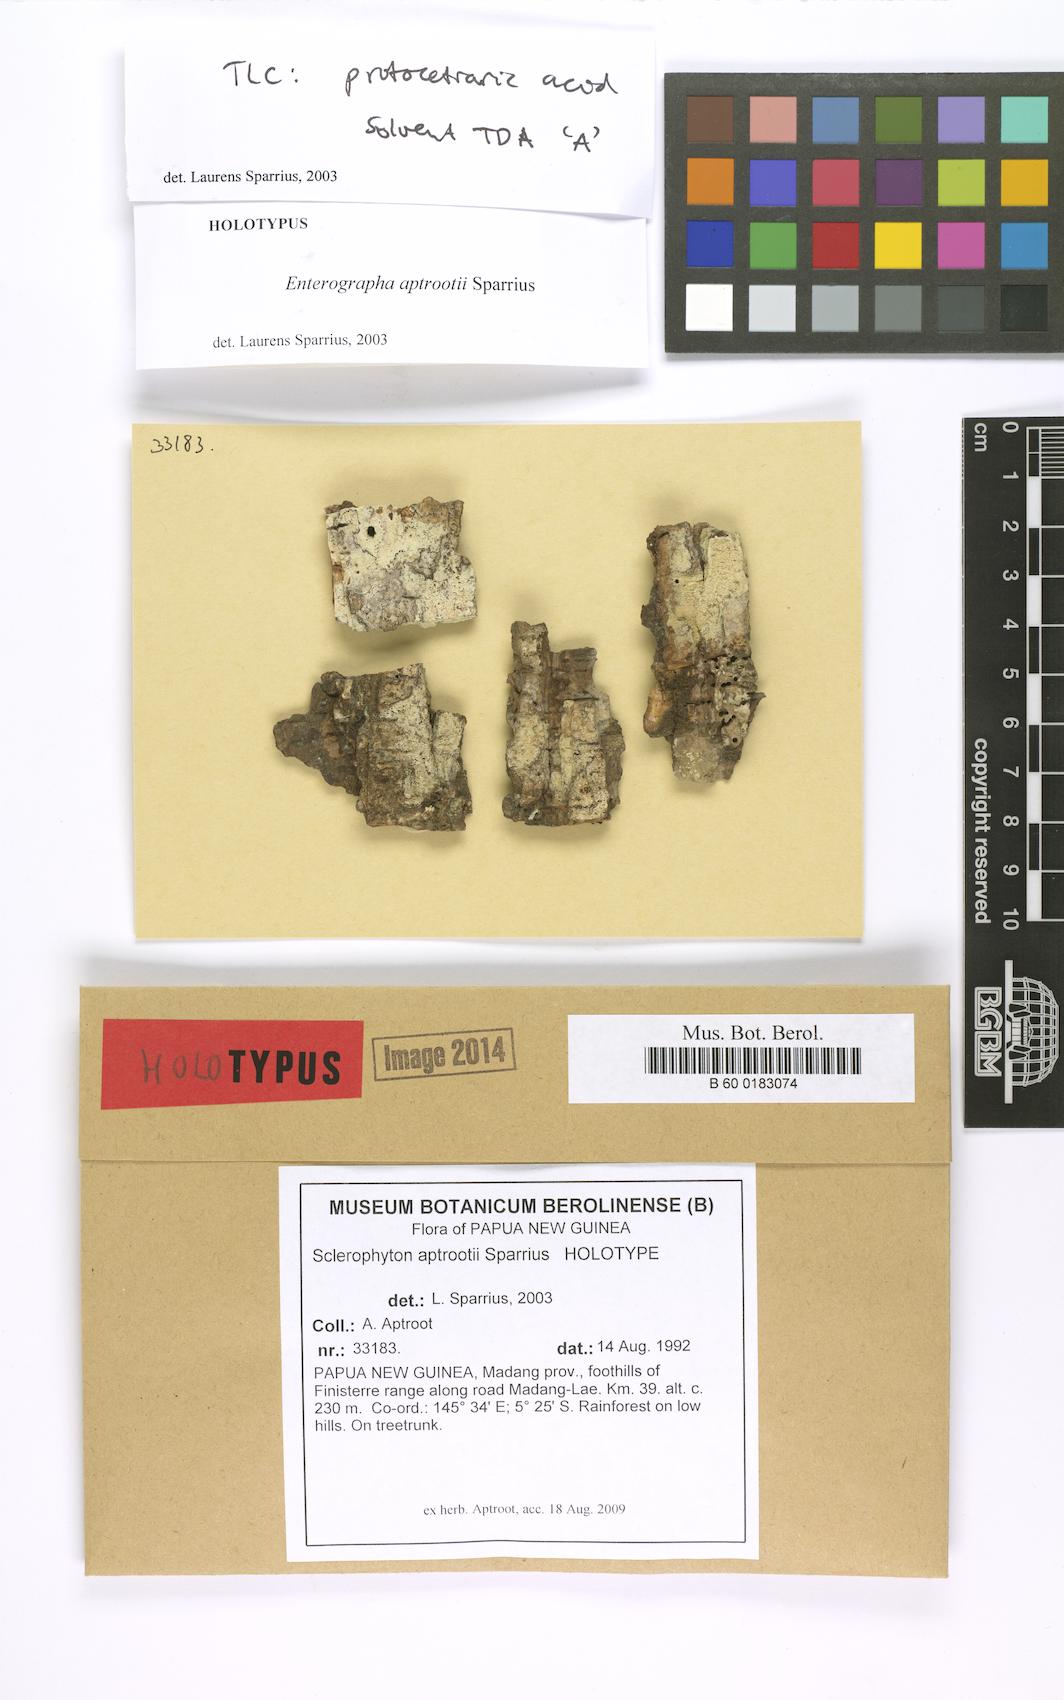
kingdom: Fungi
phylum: Ascomycota
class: Arthoniomycetes
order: Arthoniales
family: Opegraphaceae
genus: Sclerophyton
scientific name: Sclerophyton aptrootii
